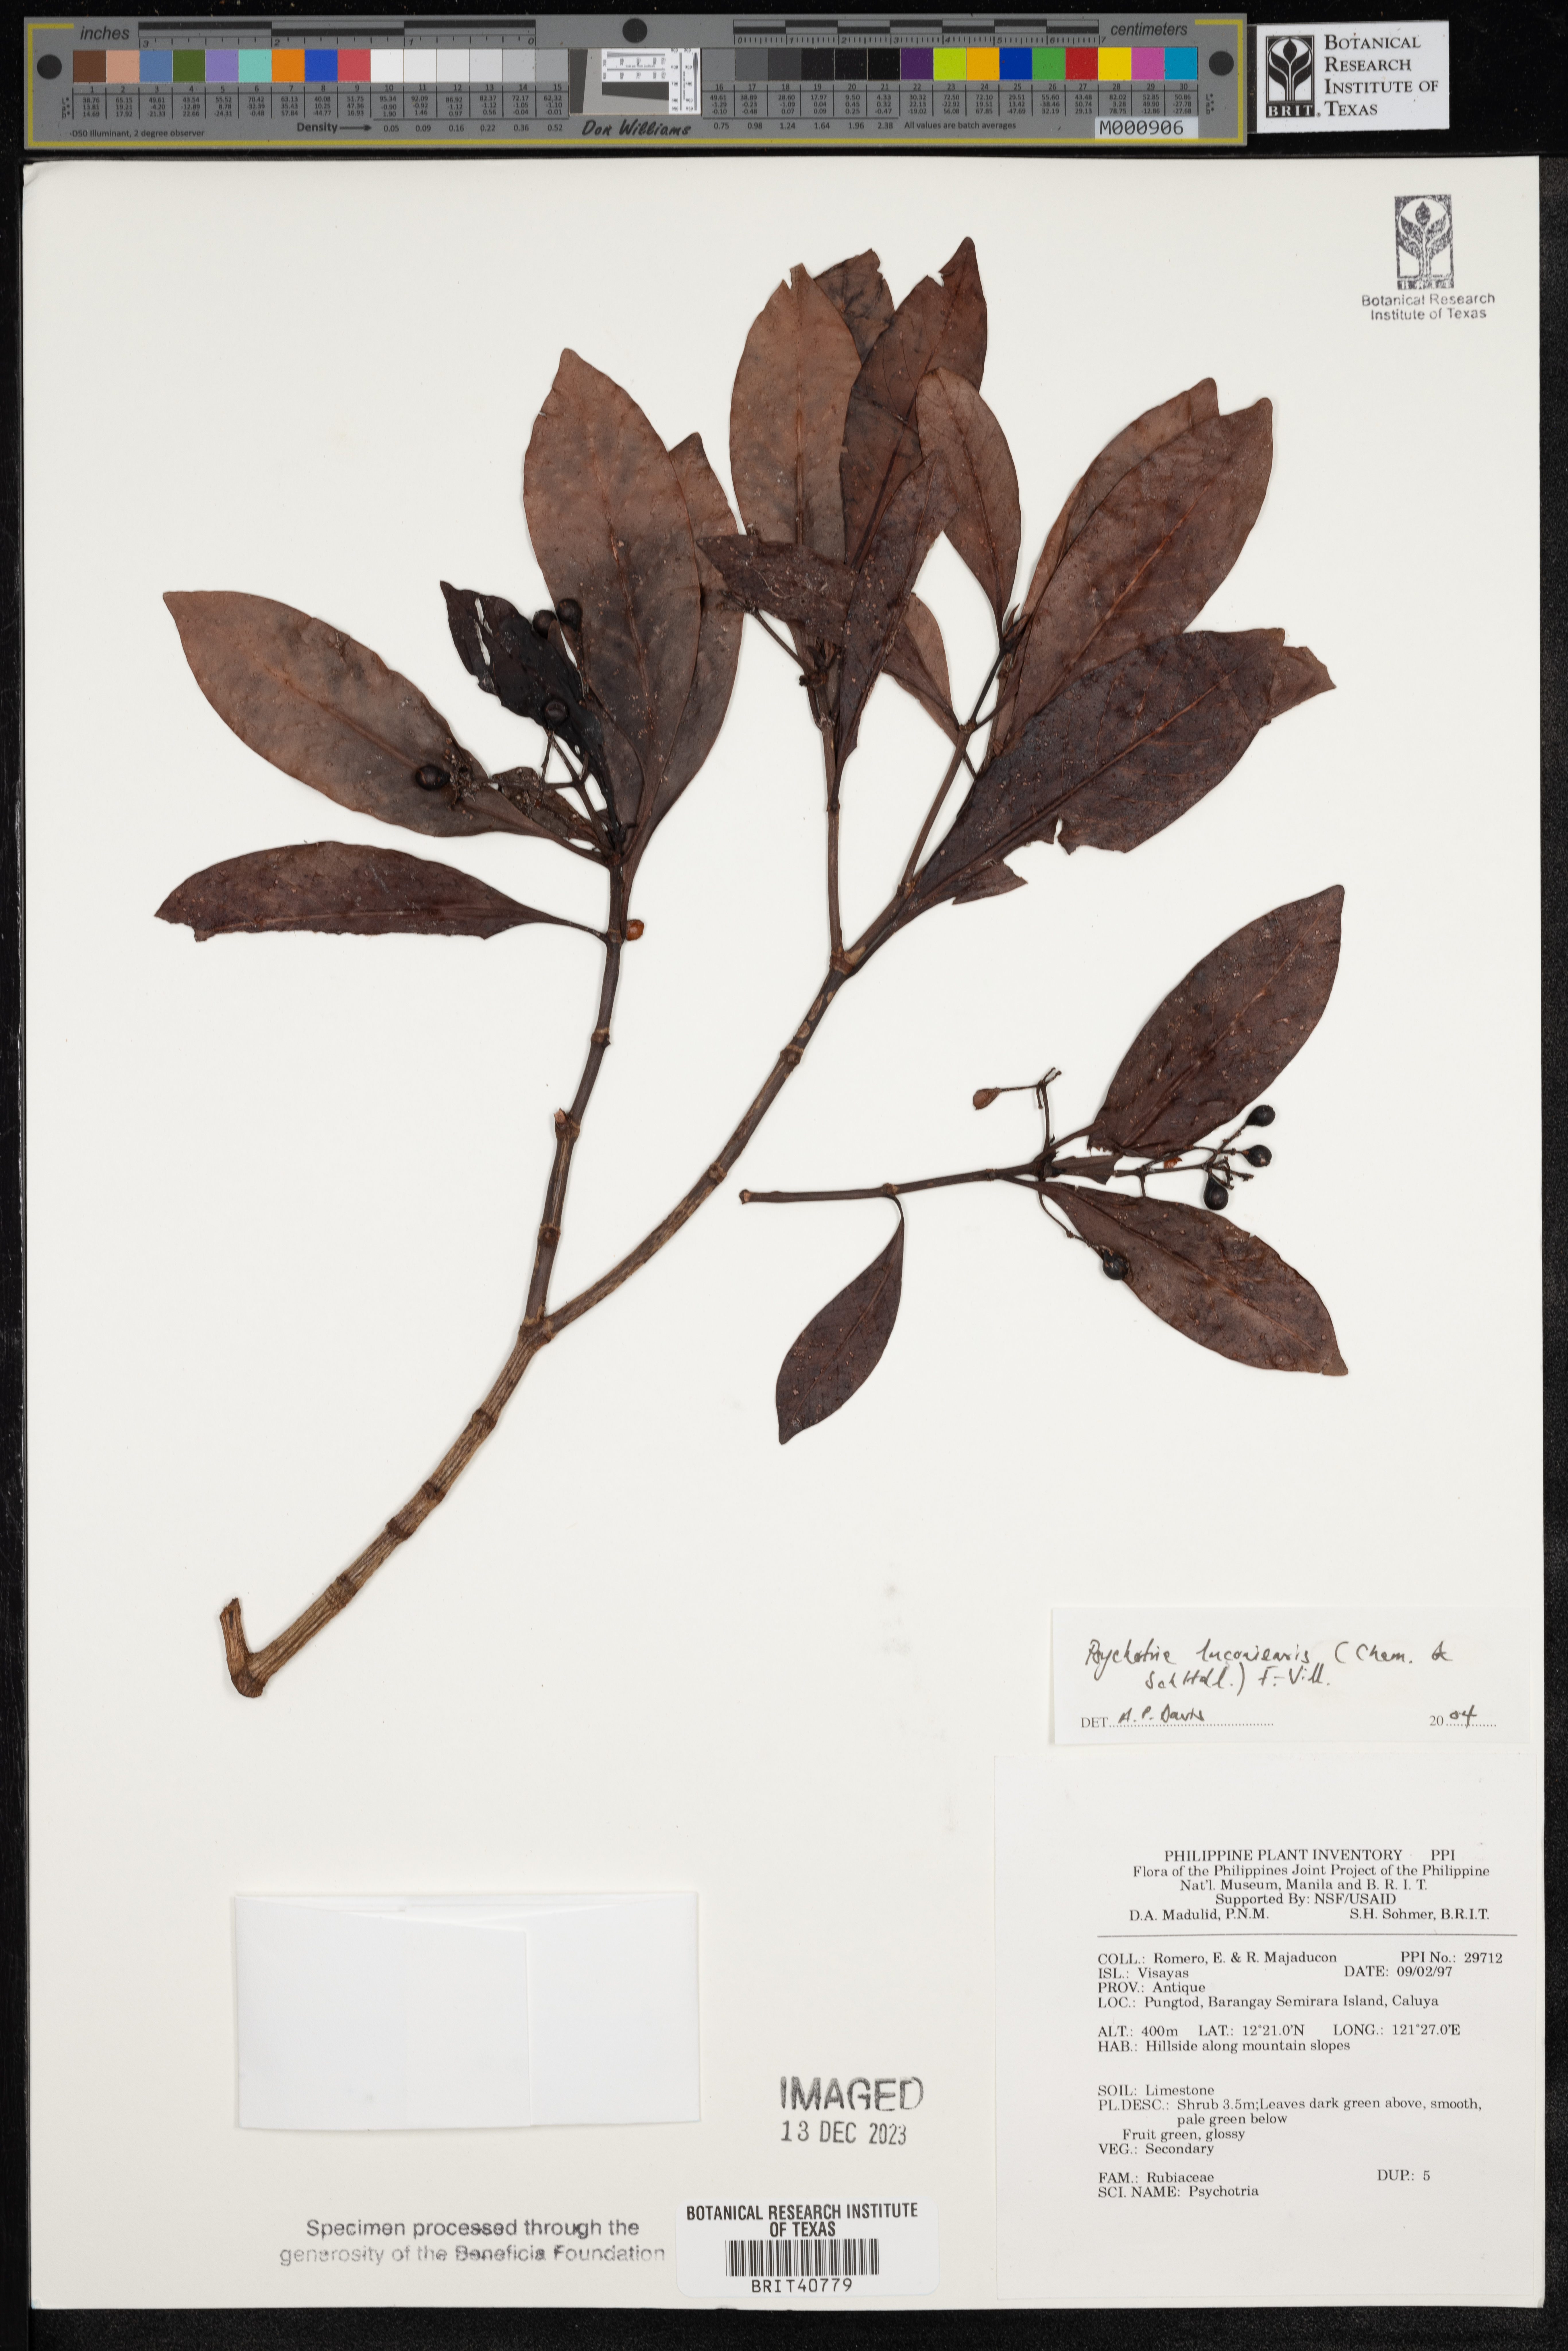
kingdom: Plantae
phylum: Tracheophyta
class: Magnoliopsida
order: Gentianales
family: Rubiaceae
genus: Psychotria
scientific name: Psychotria luzoniensis
